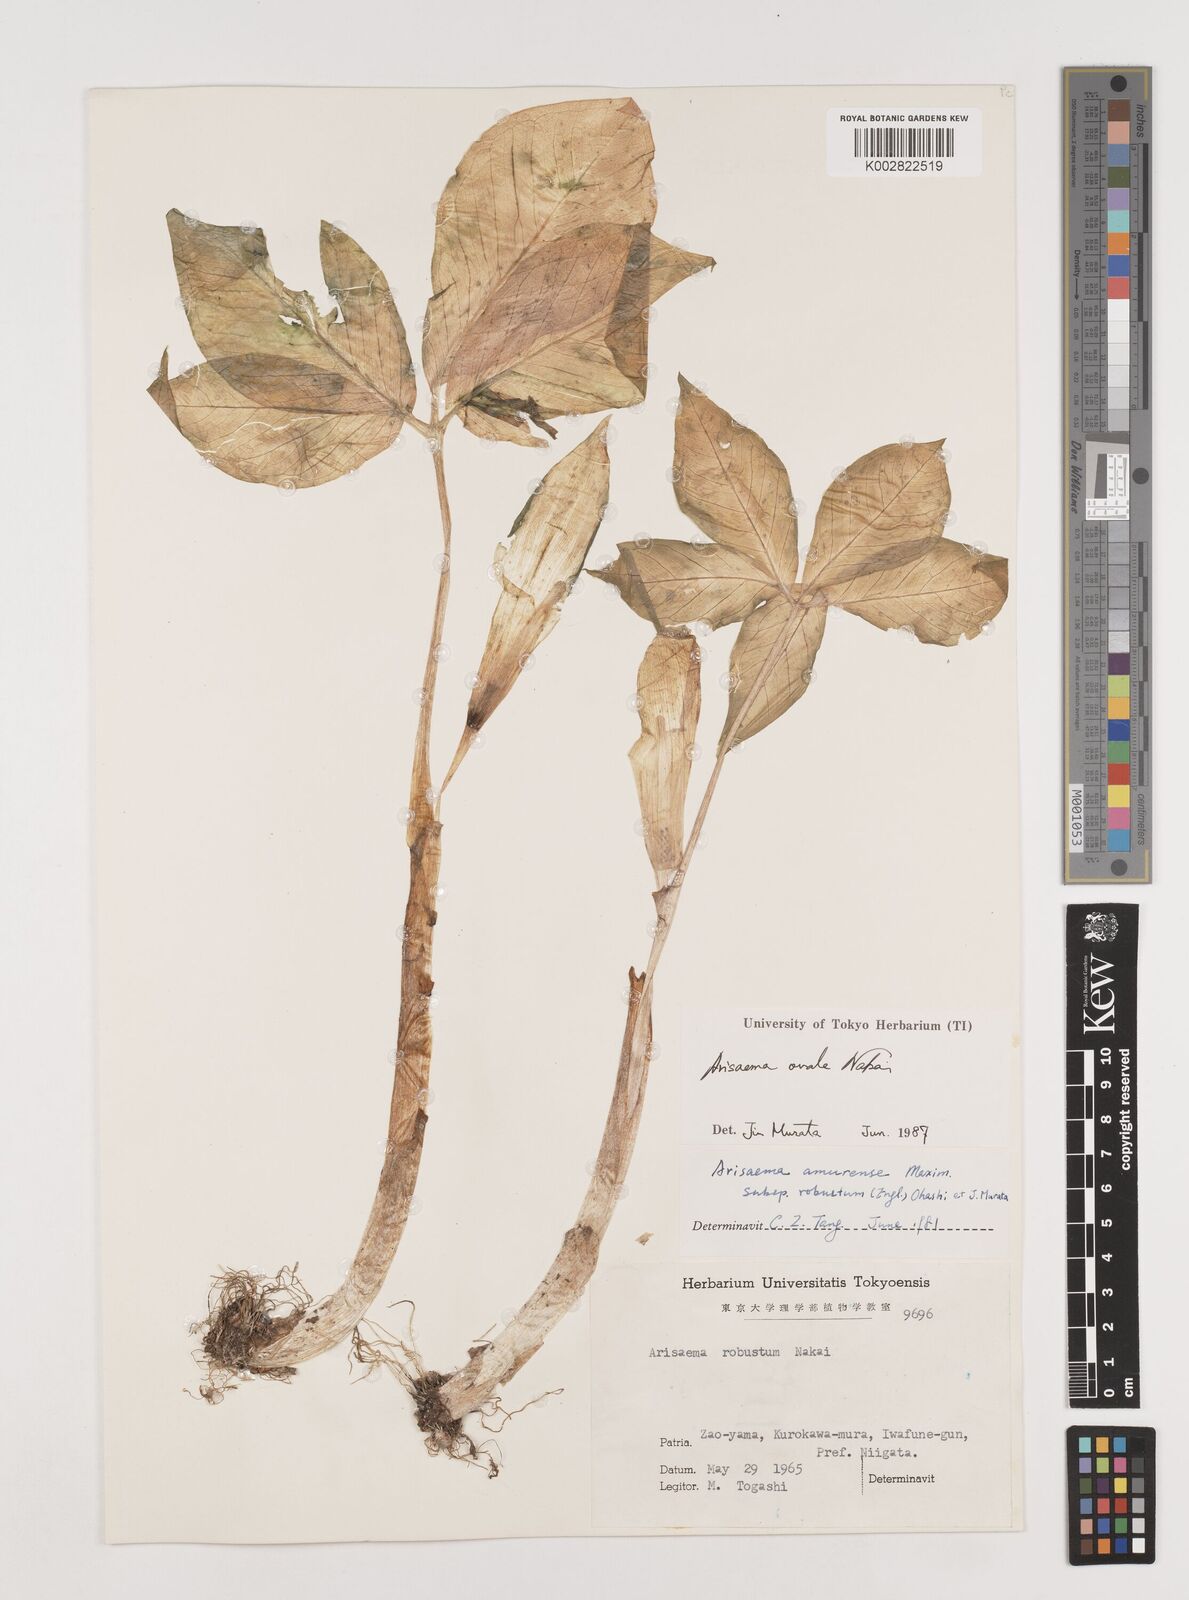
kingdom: Plantae
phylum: Tracheophyta
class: Liliopsida
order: Alismatales
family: Araceae
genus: Arisaema
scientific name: Arisaema ovale
